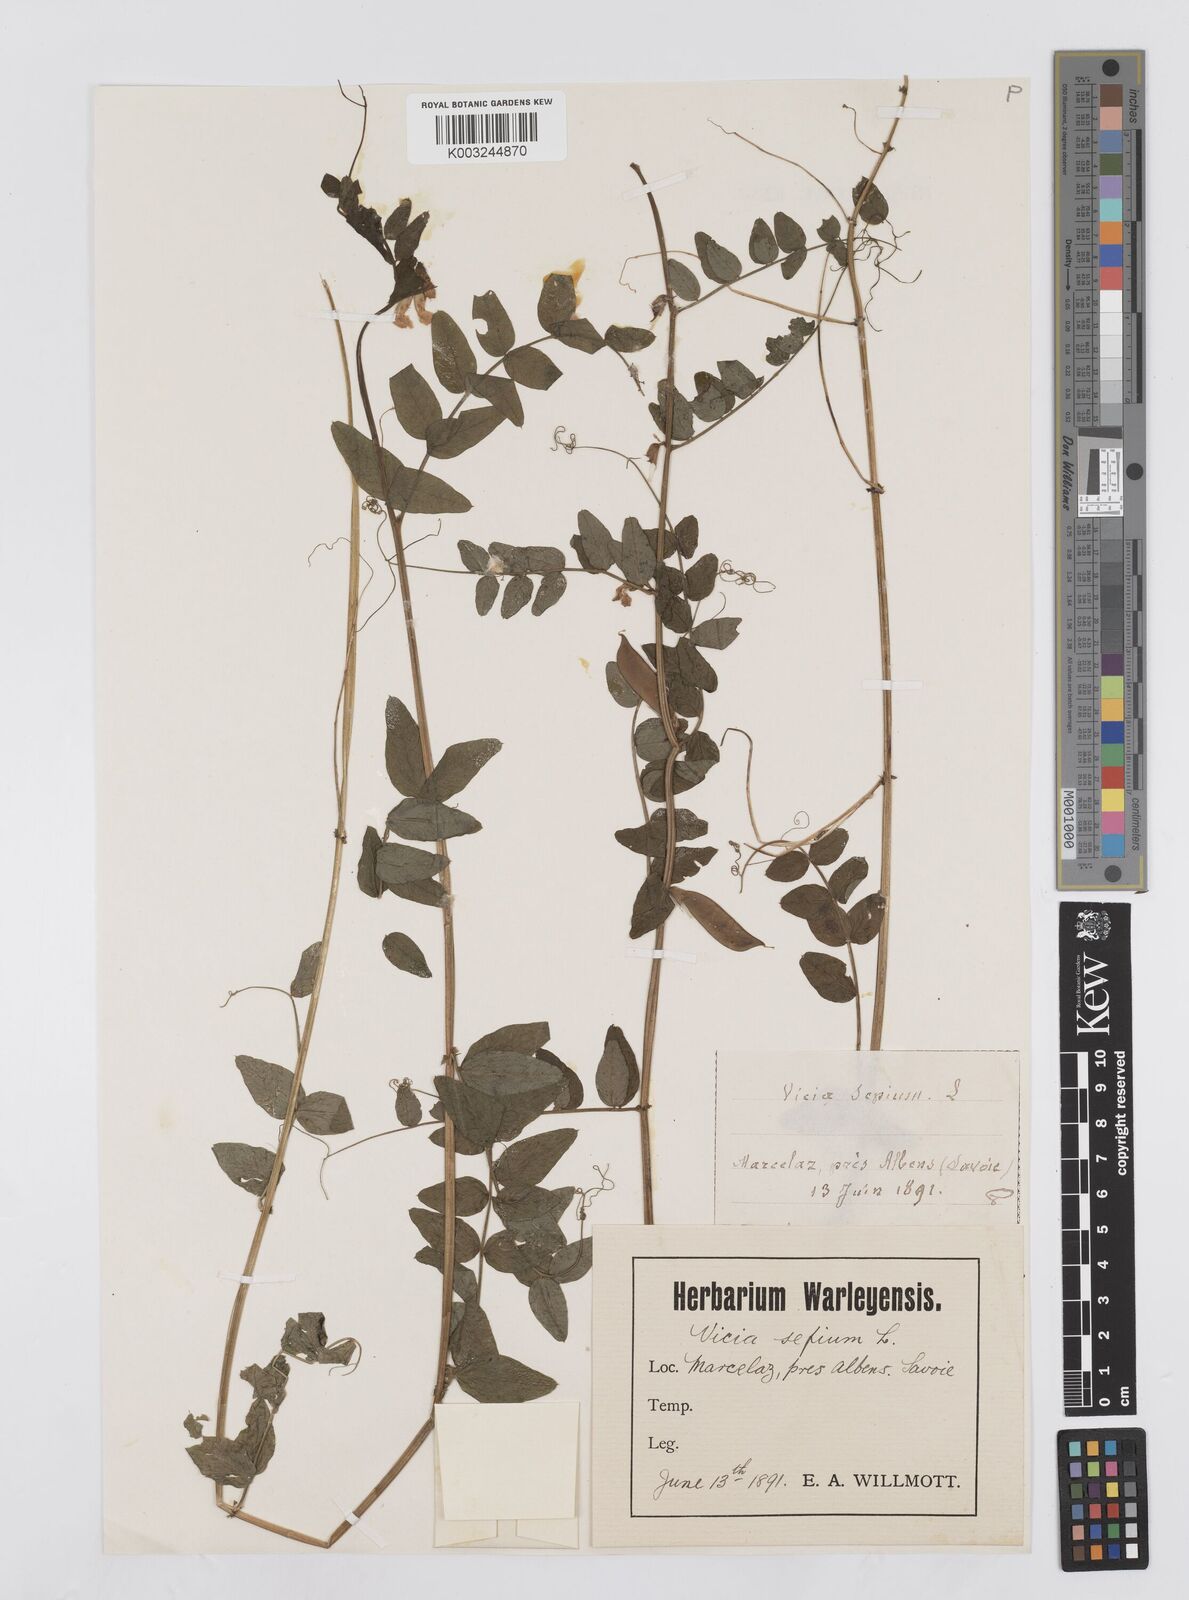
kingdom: Plantae
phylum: Tracheophyta
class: Magnoliopsida
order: Fabales
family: Fabaceae
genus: Vicia
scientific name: Vicia sepium
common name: Bush vetch
